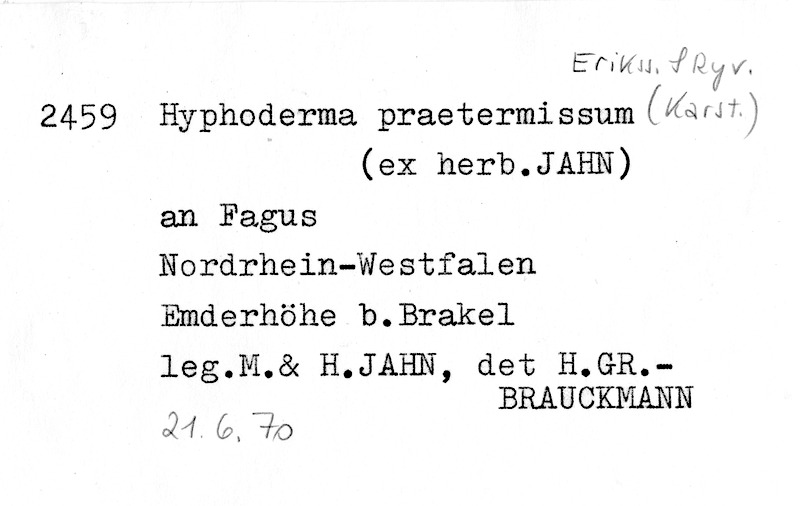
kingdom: Fungi
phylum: Basidiomycota
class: Agaricomycetes
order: Hymenochaetales
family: Rickenellaceae
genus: Peniophorella
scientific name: Peniophorella praetermissa
